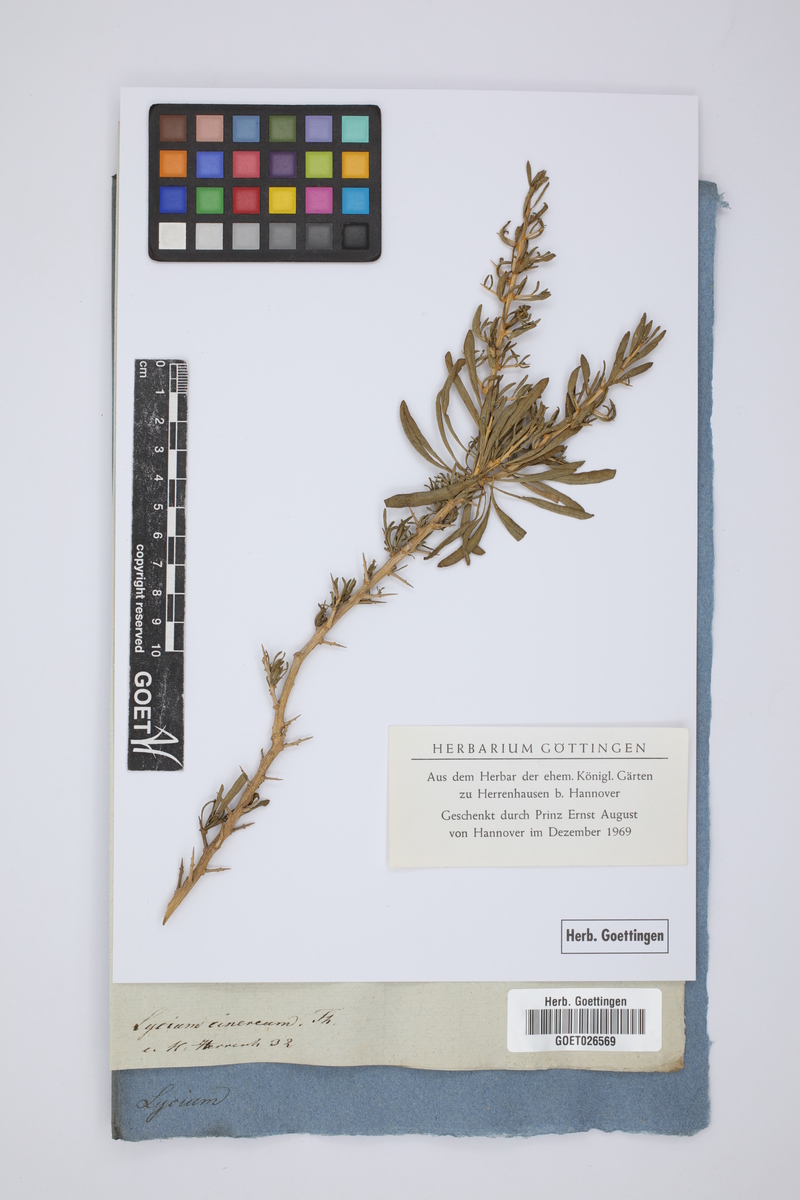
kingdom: Plantae
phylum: Tracheophyta
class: Magnoliopsida
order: Solanales
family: Solanaceae
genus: Lycium
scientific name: Lycium cinereum
